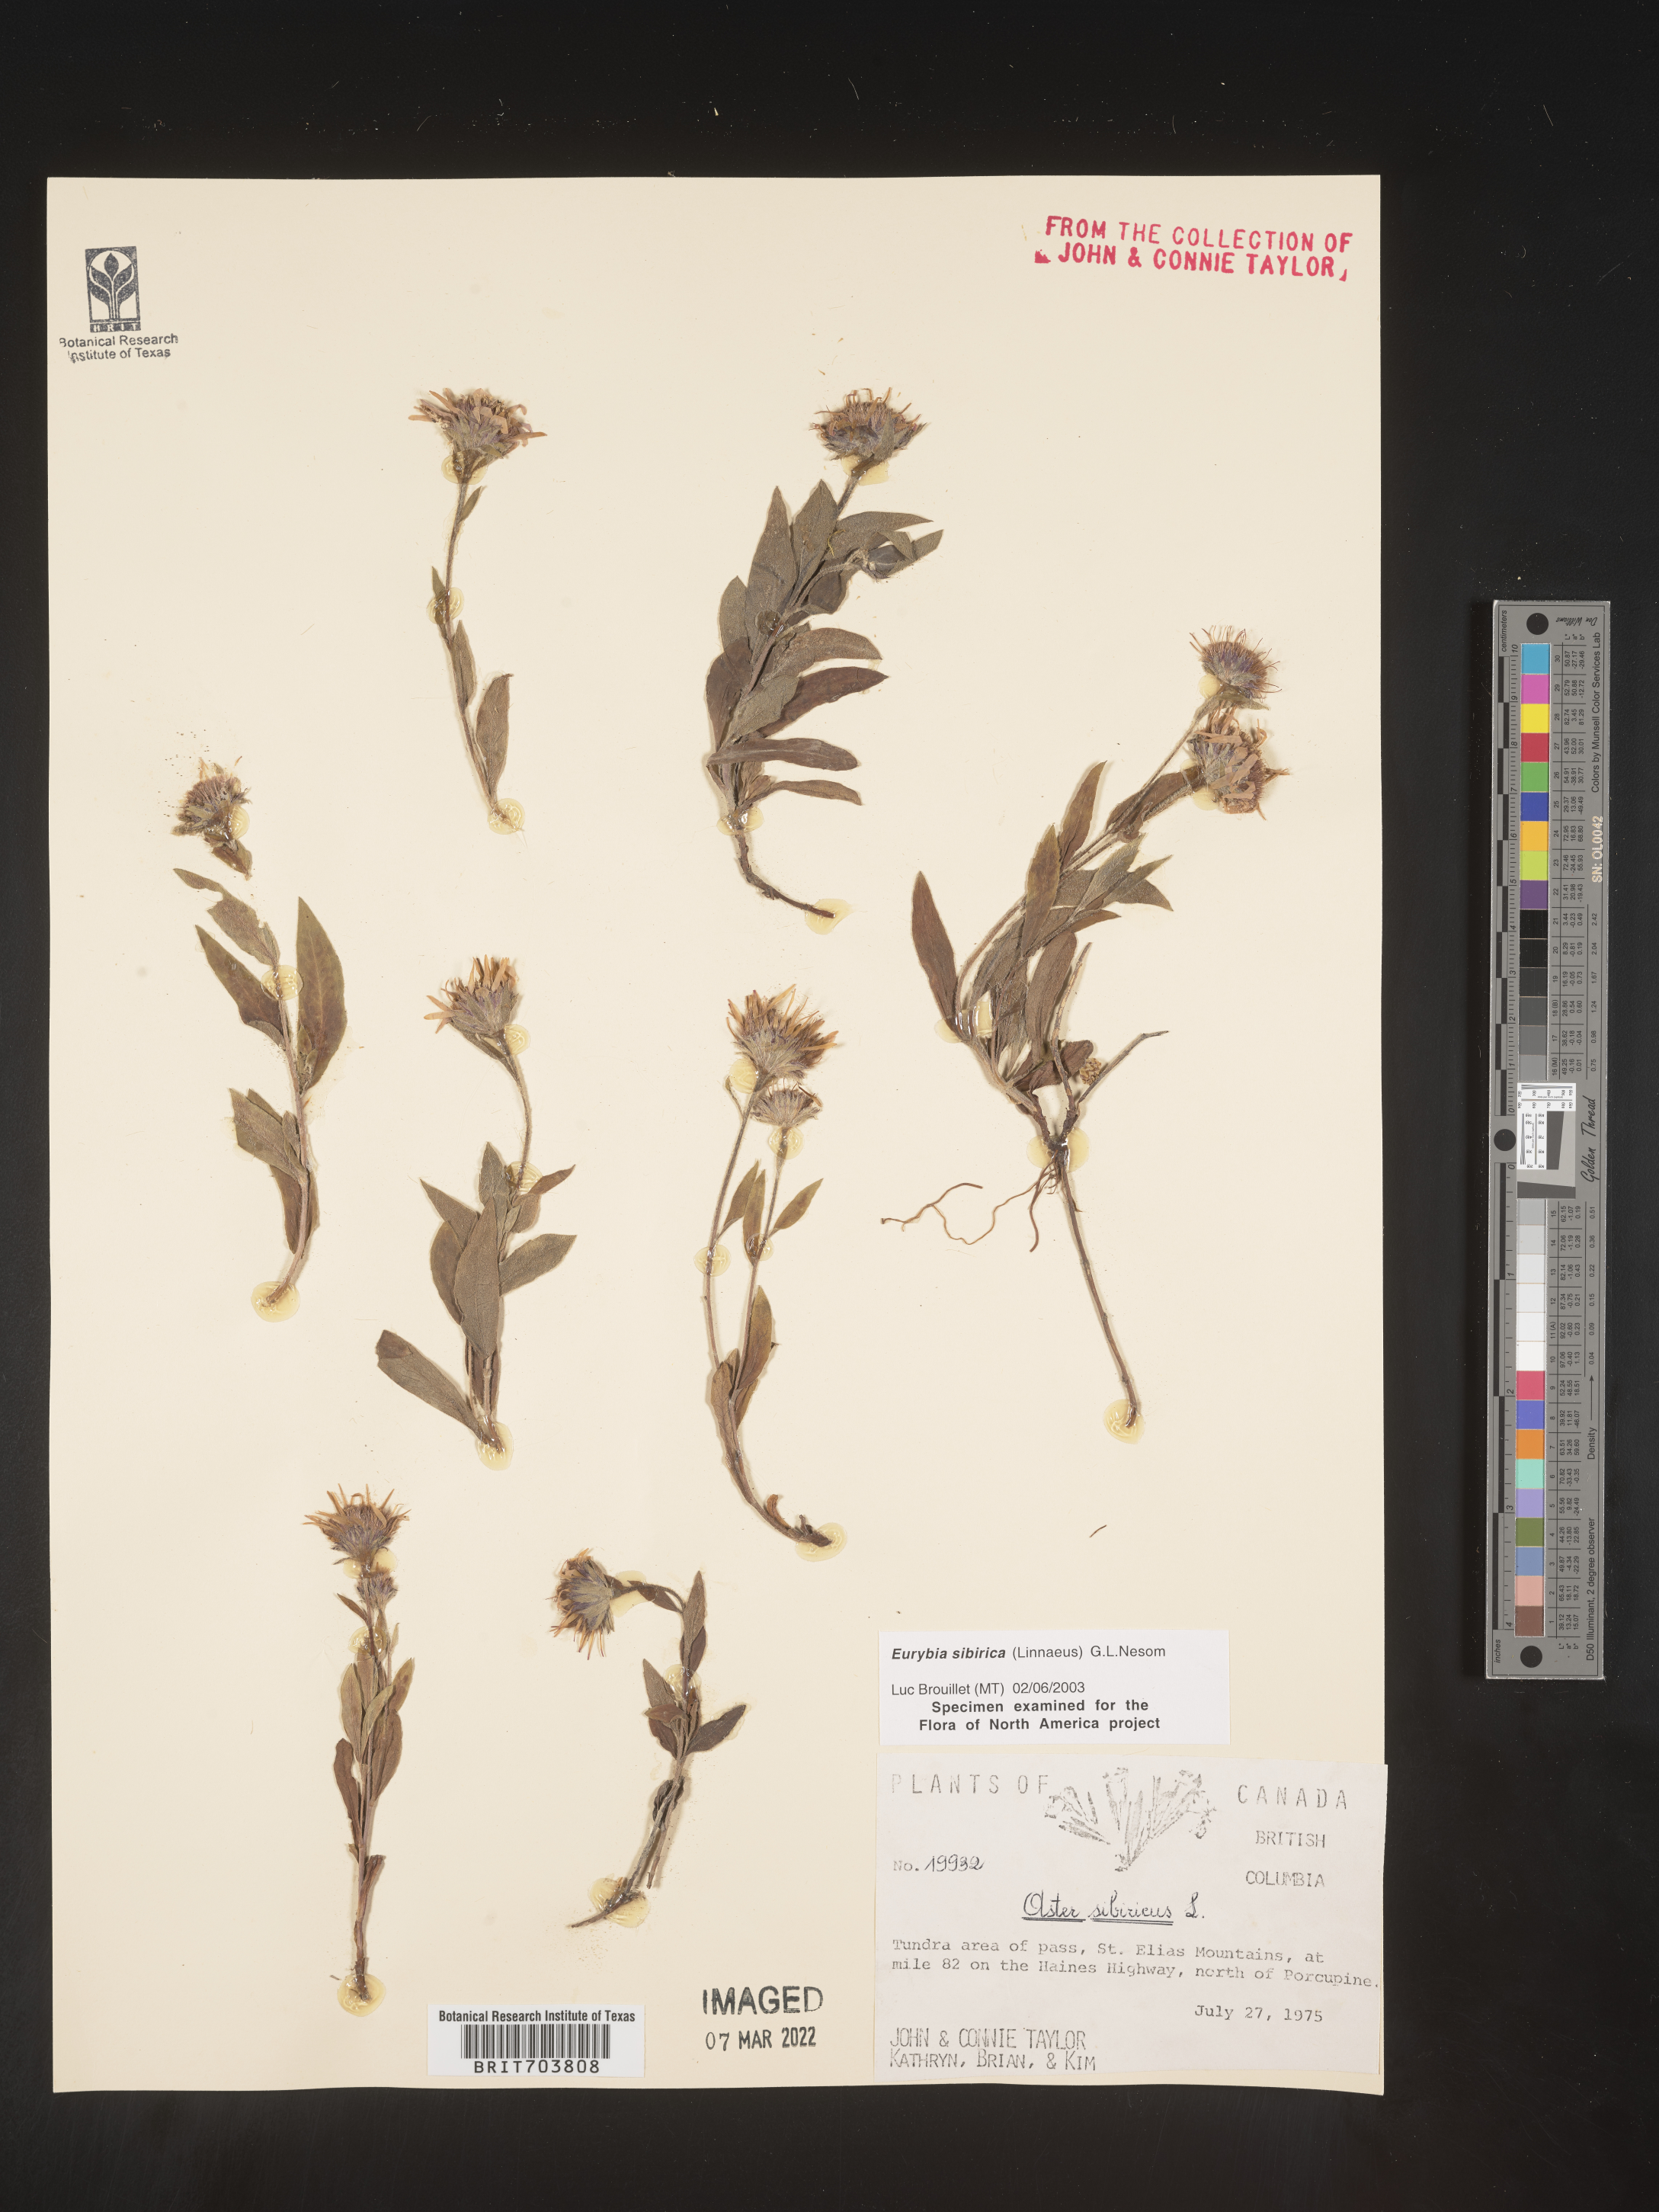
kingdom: Plantae
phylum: Tracheophyta
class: Magnoliopsida
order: Asterales
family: Asteraceae
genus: Eurybia
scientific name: Eurybia sibirica
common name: Arctic aster
